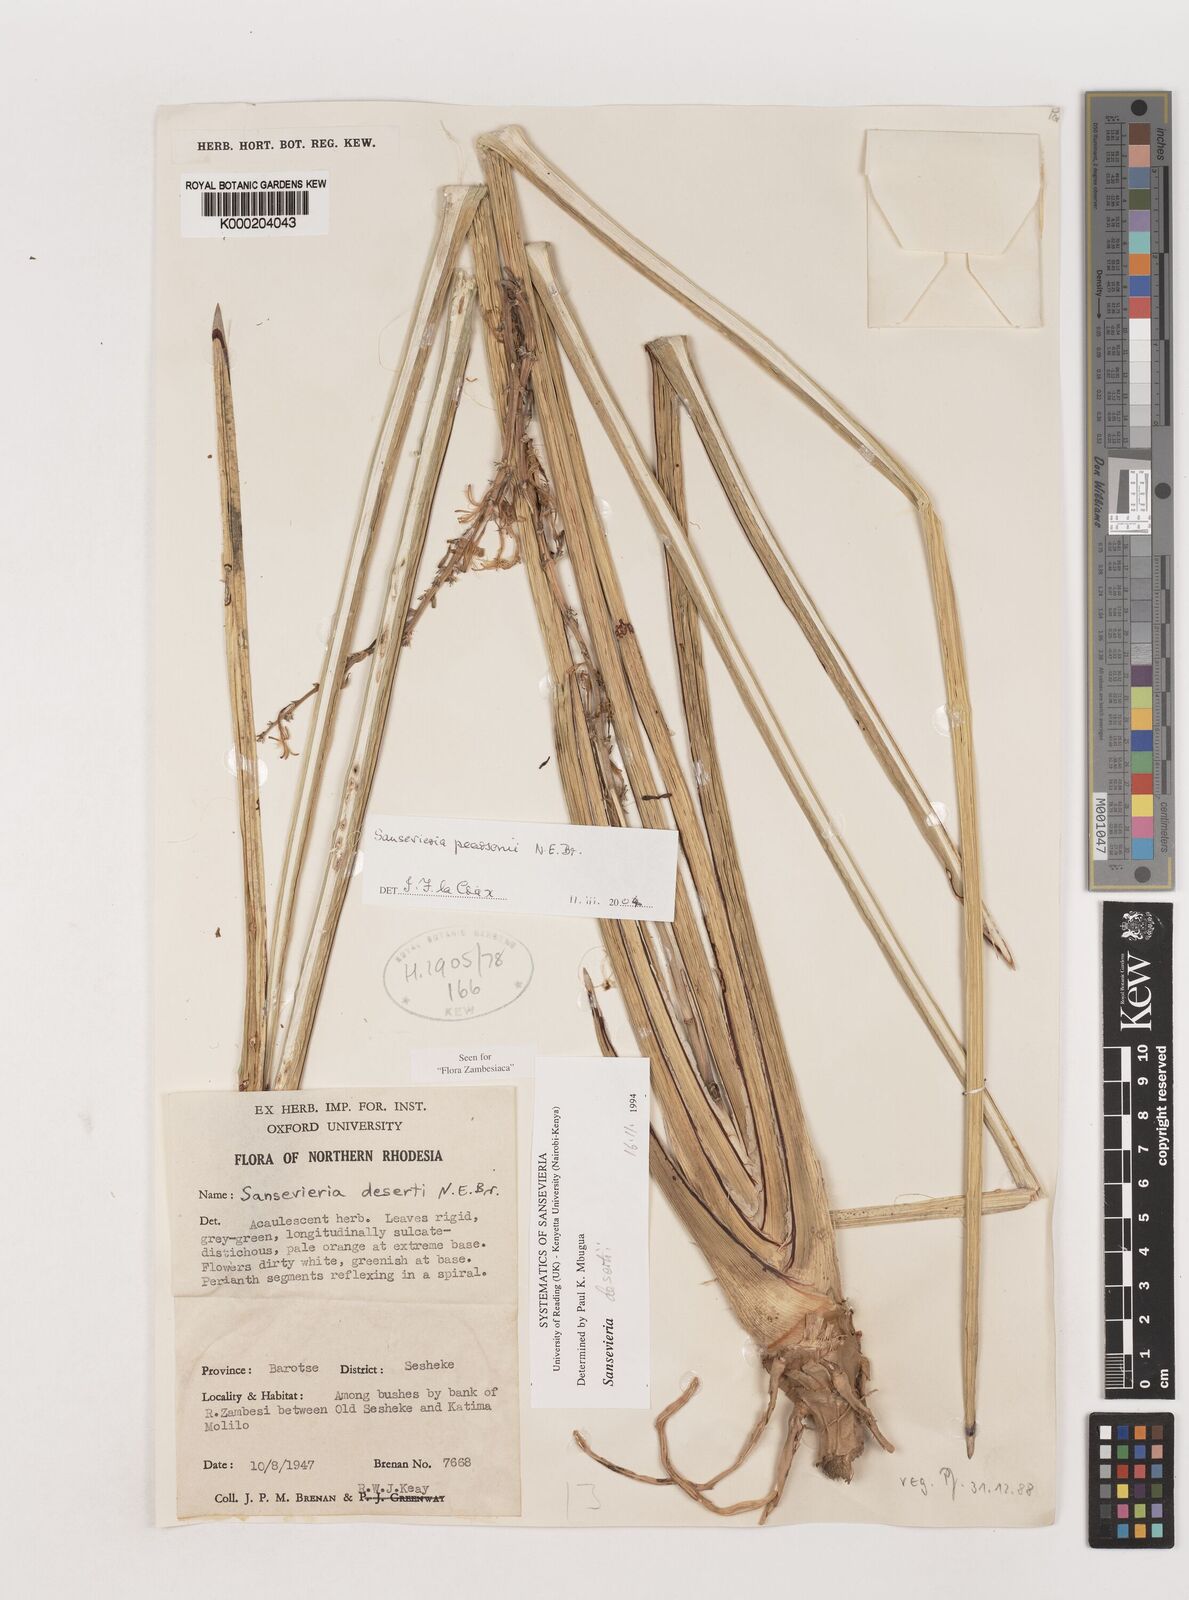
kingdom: Plantae
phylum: Tracheophyta
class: Liliopsida
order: Asparagales
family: Asparagaceae
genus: Dracaena
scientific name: Dracaena pearsonii
